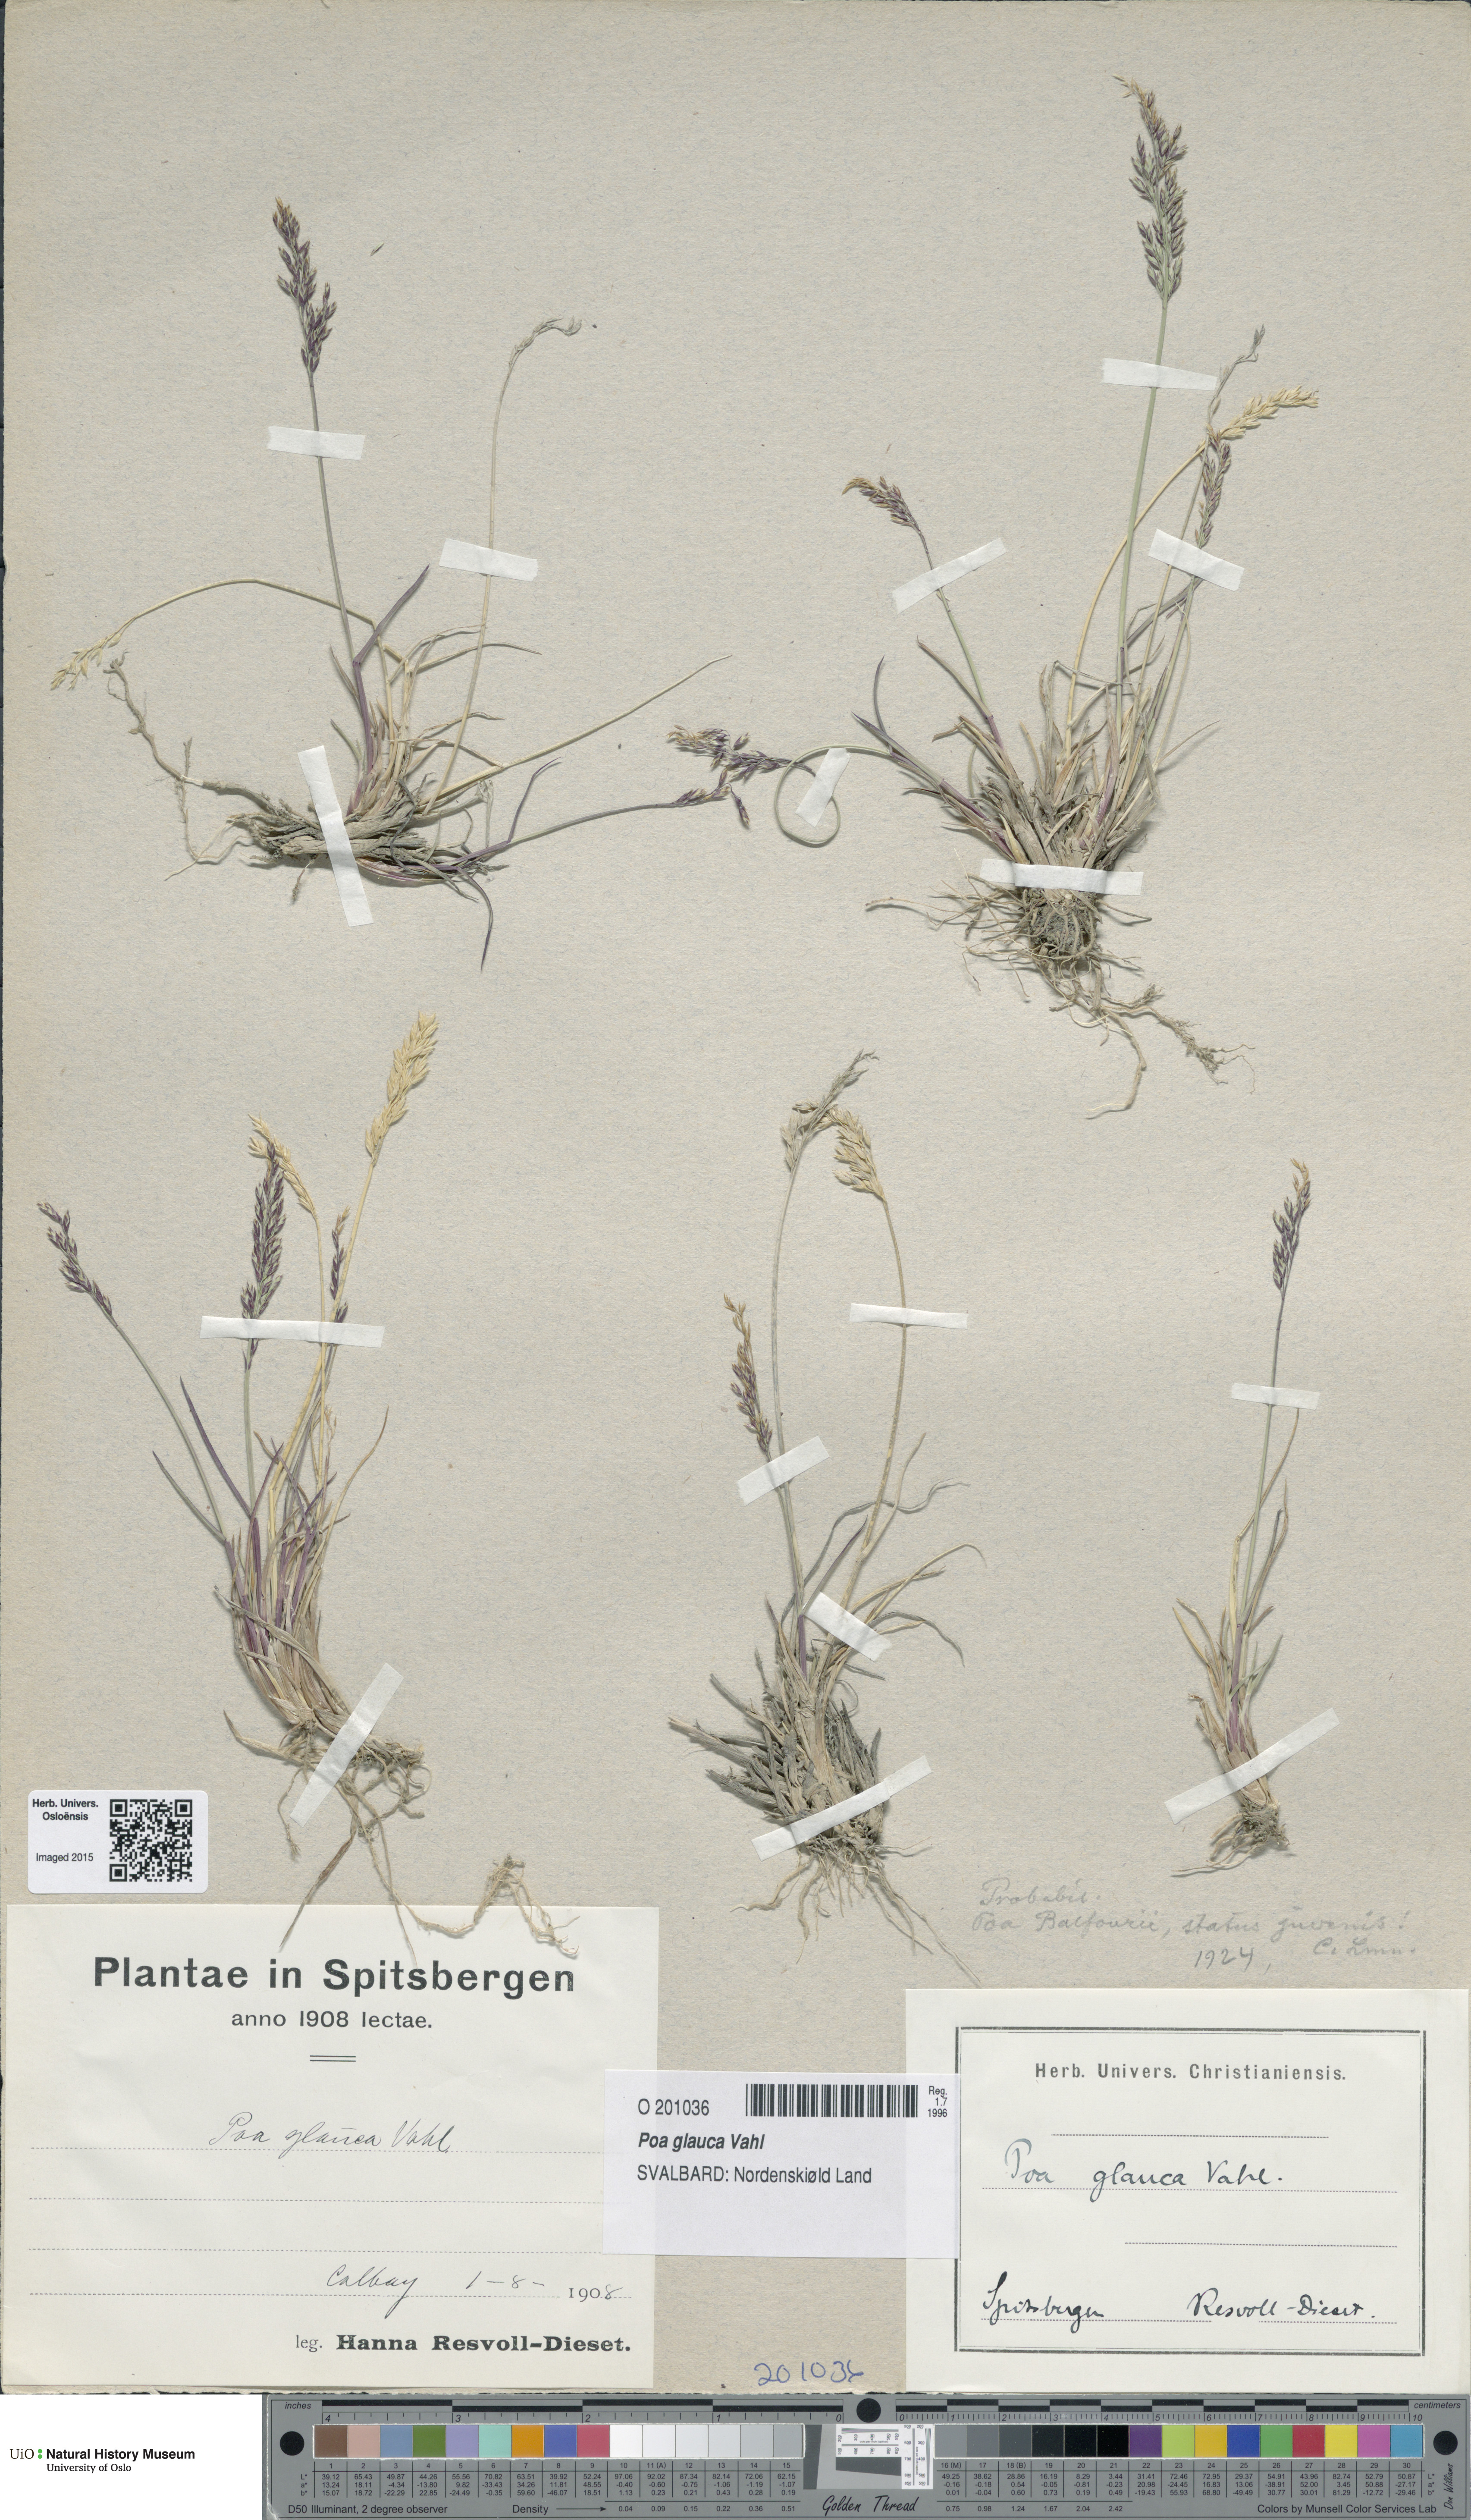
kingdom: Plantae
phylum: Tracheophyta
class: Liliopsida
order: Poales
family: Poaceae
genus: Poa
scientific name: Poa glauca
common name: Glaucous bluegrass
